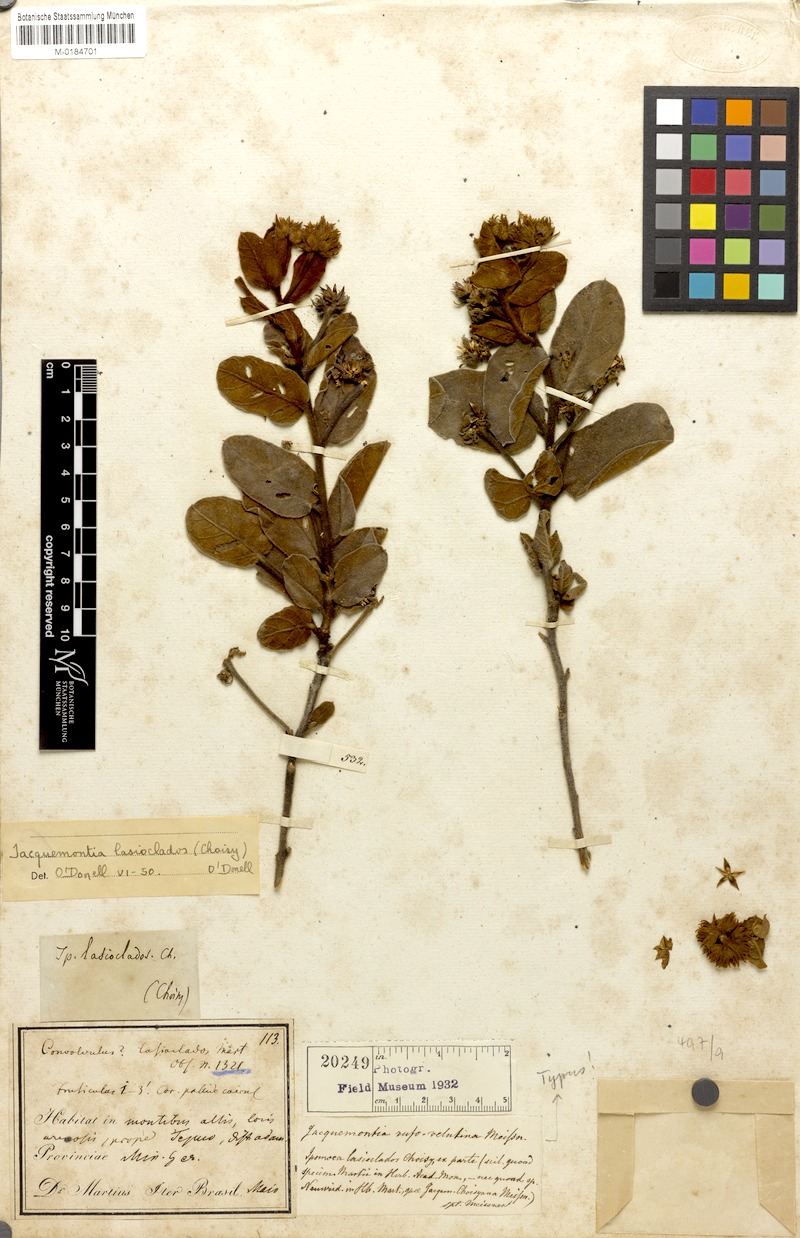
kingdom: Plantae
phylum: Tracheophyta
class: Magnoliopsida
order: Solanales
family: Convolvulaceae
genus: Jacquemontia
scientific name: Jacquemontia lasioclados
